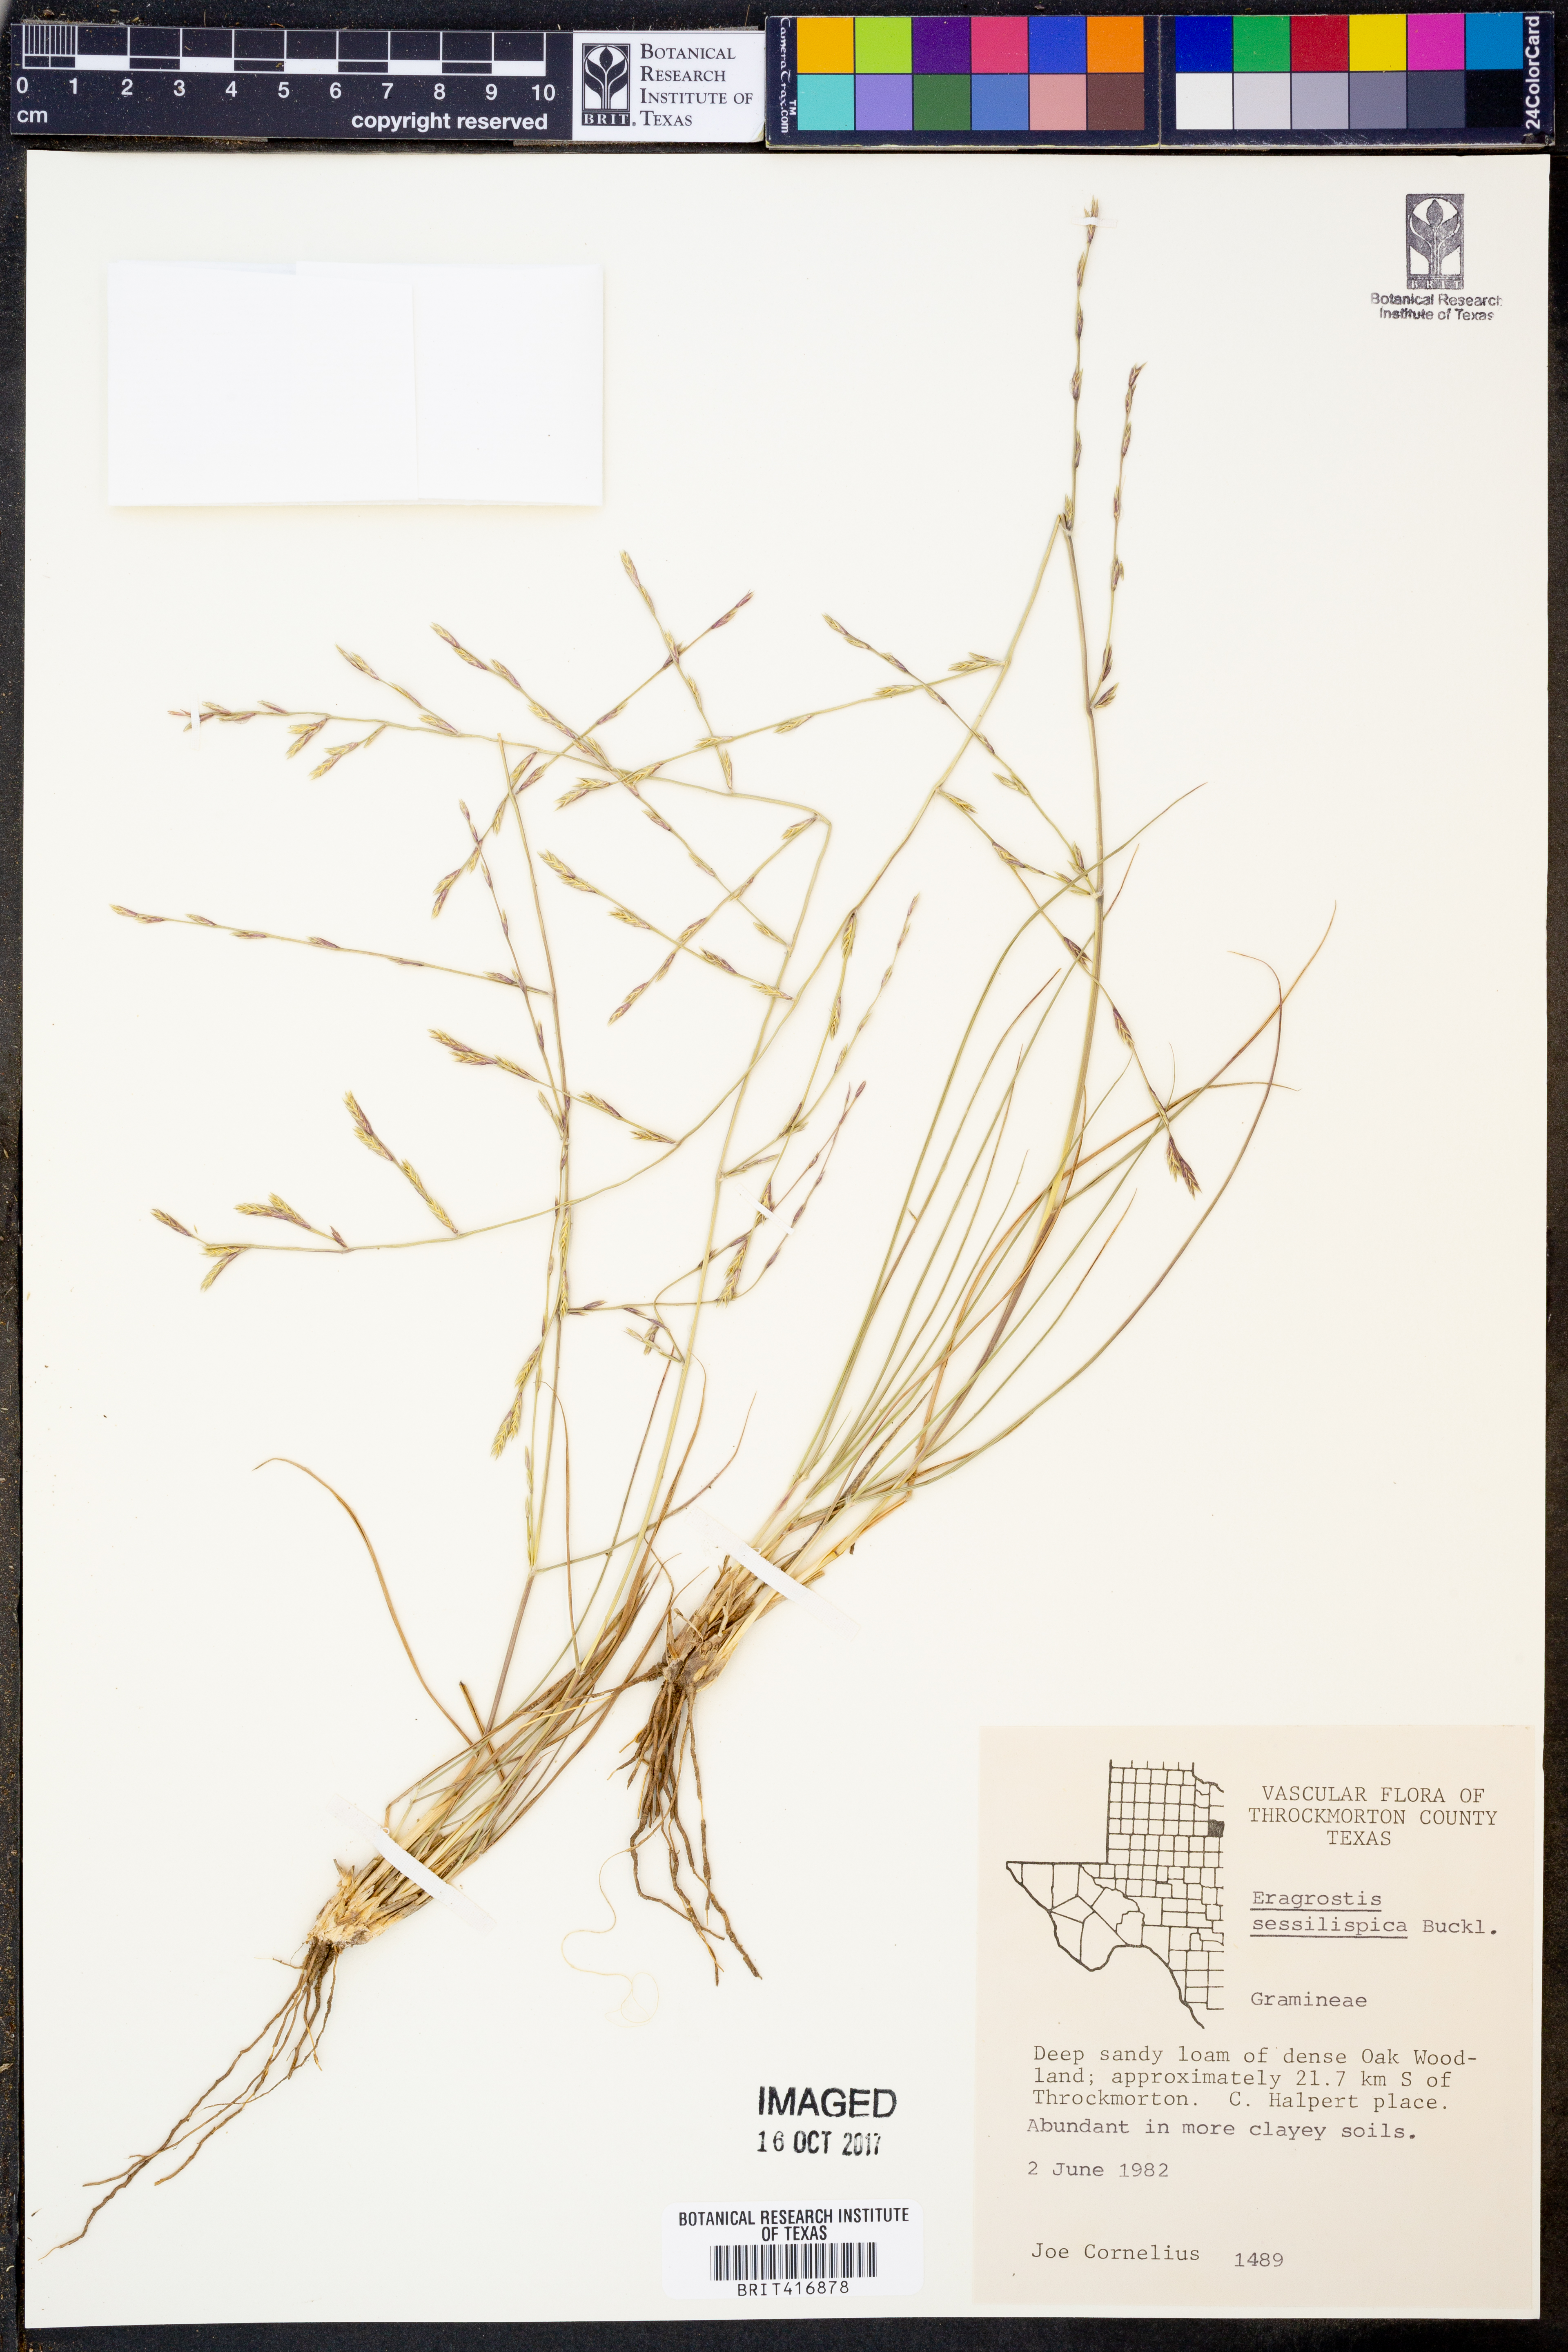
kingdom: Plantae
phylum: Tracheophyta
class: Liliopsida
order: Poales
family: Poaceae
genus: Eragrostis
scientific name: Eragrostis sessilispica
